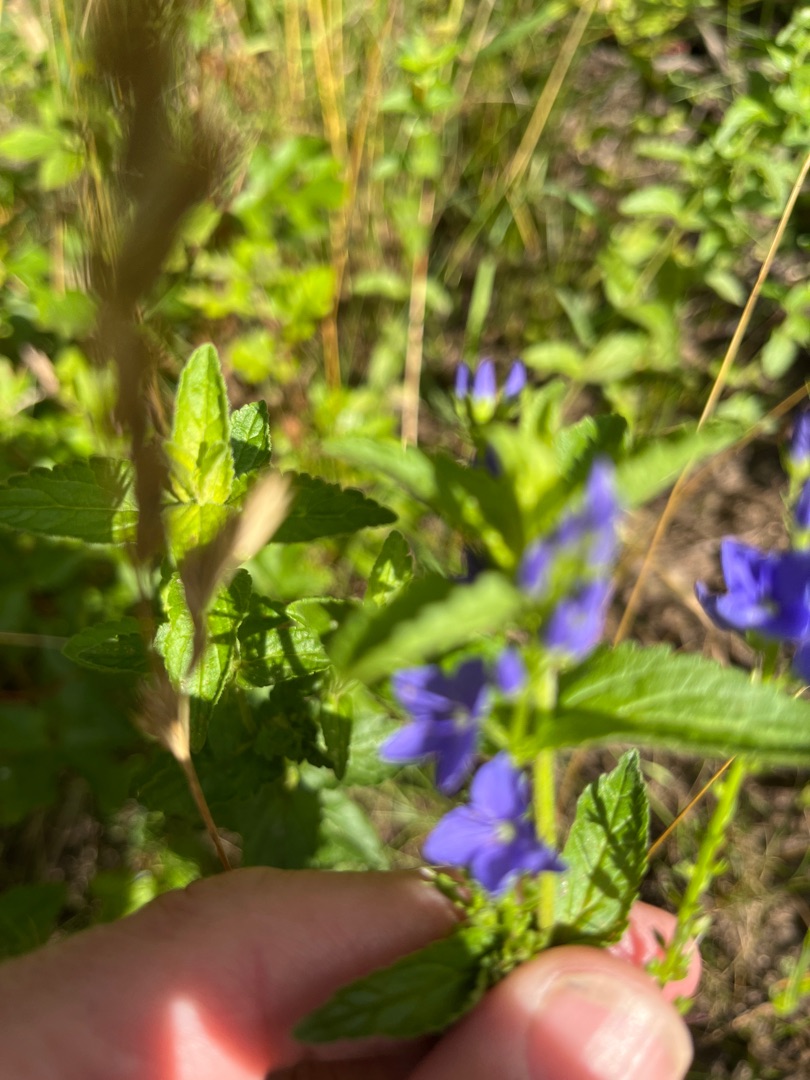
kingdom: Plantae
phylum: Tracheophyta
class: Magnoliopsida
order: Lamiales
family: Plantaginaceae
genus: Veronica
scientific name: Veronica teucrium
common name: Bredbladet ærenpris
